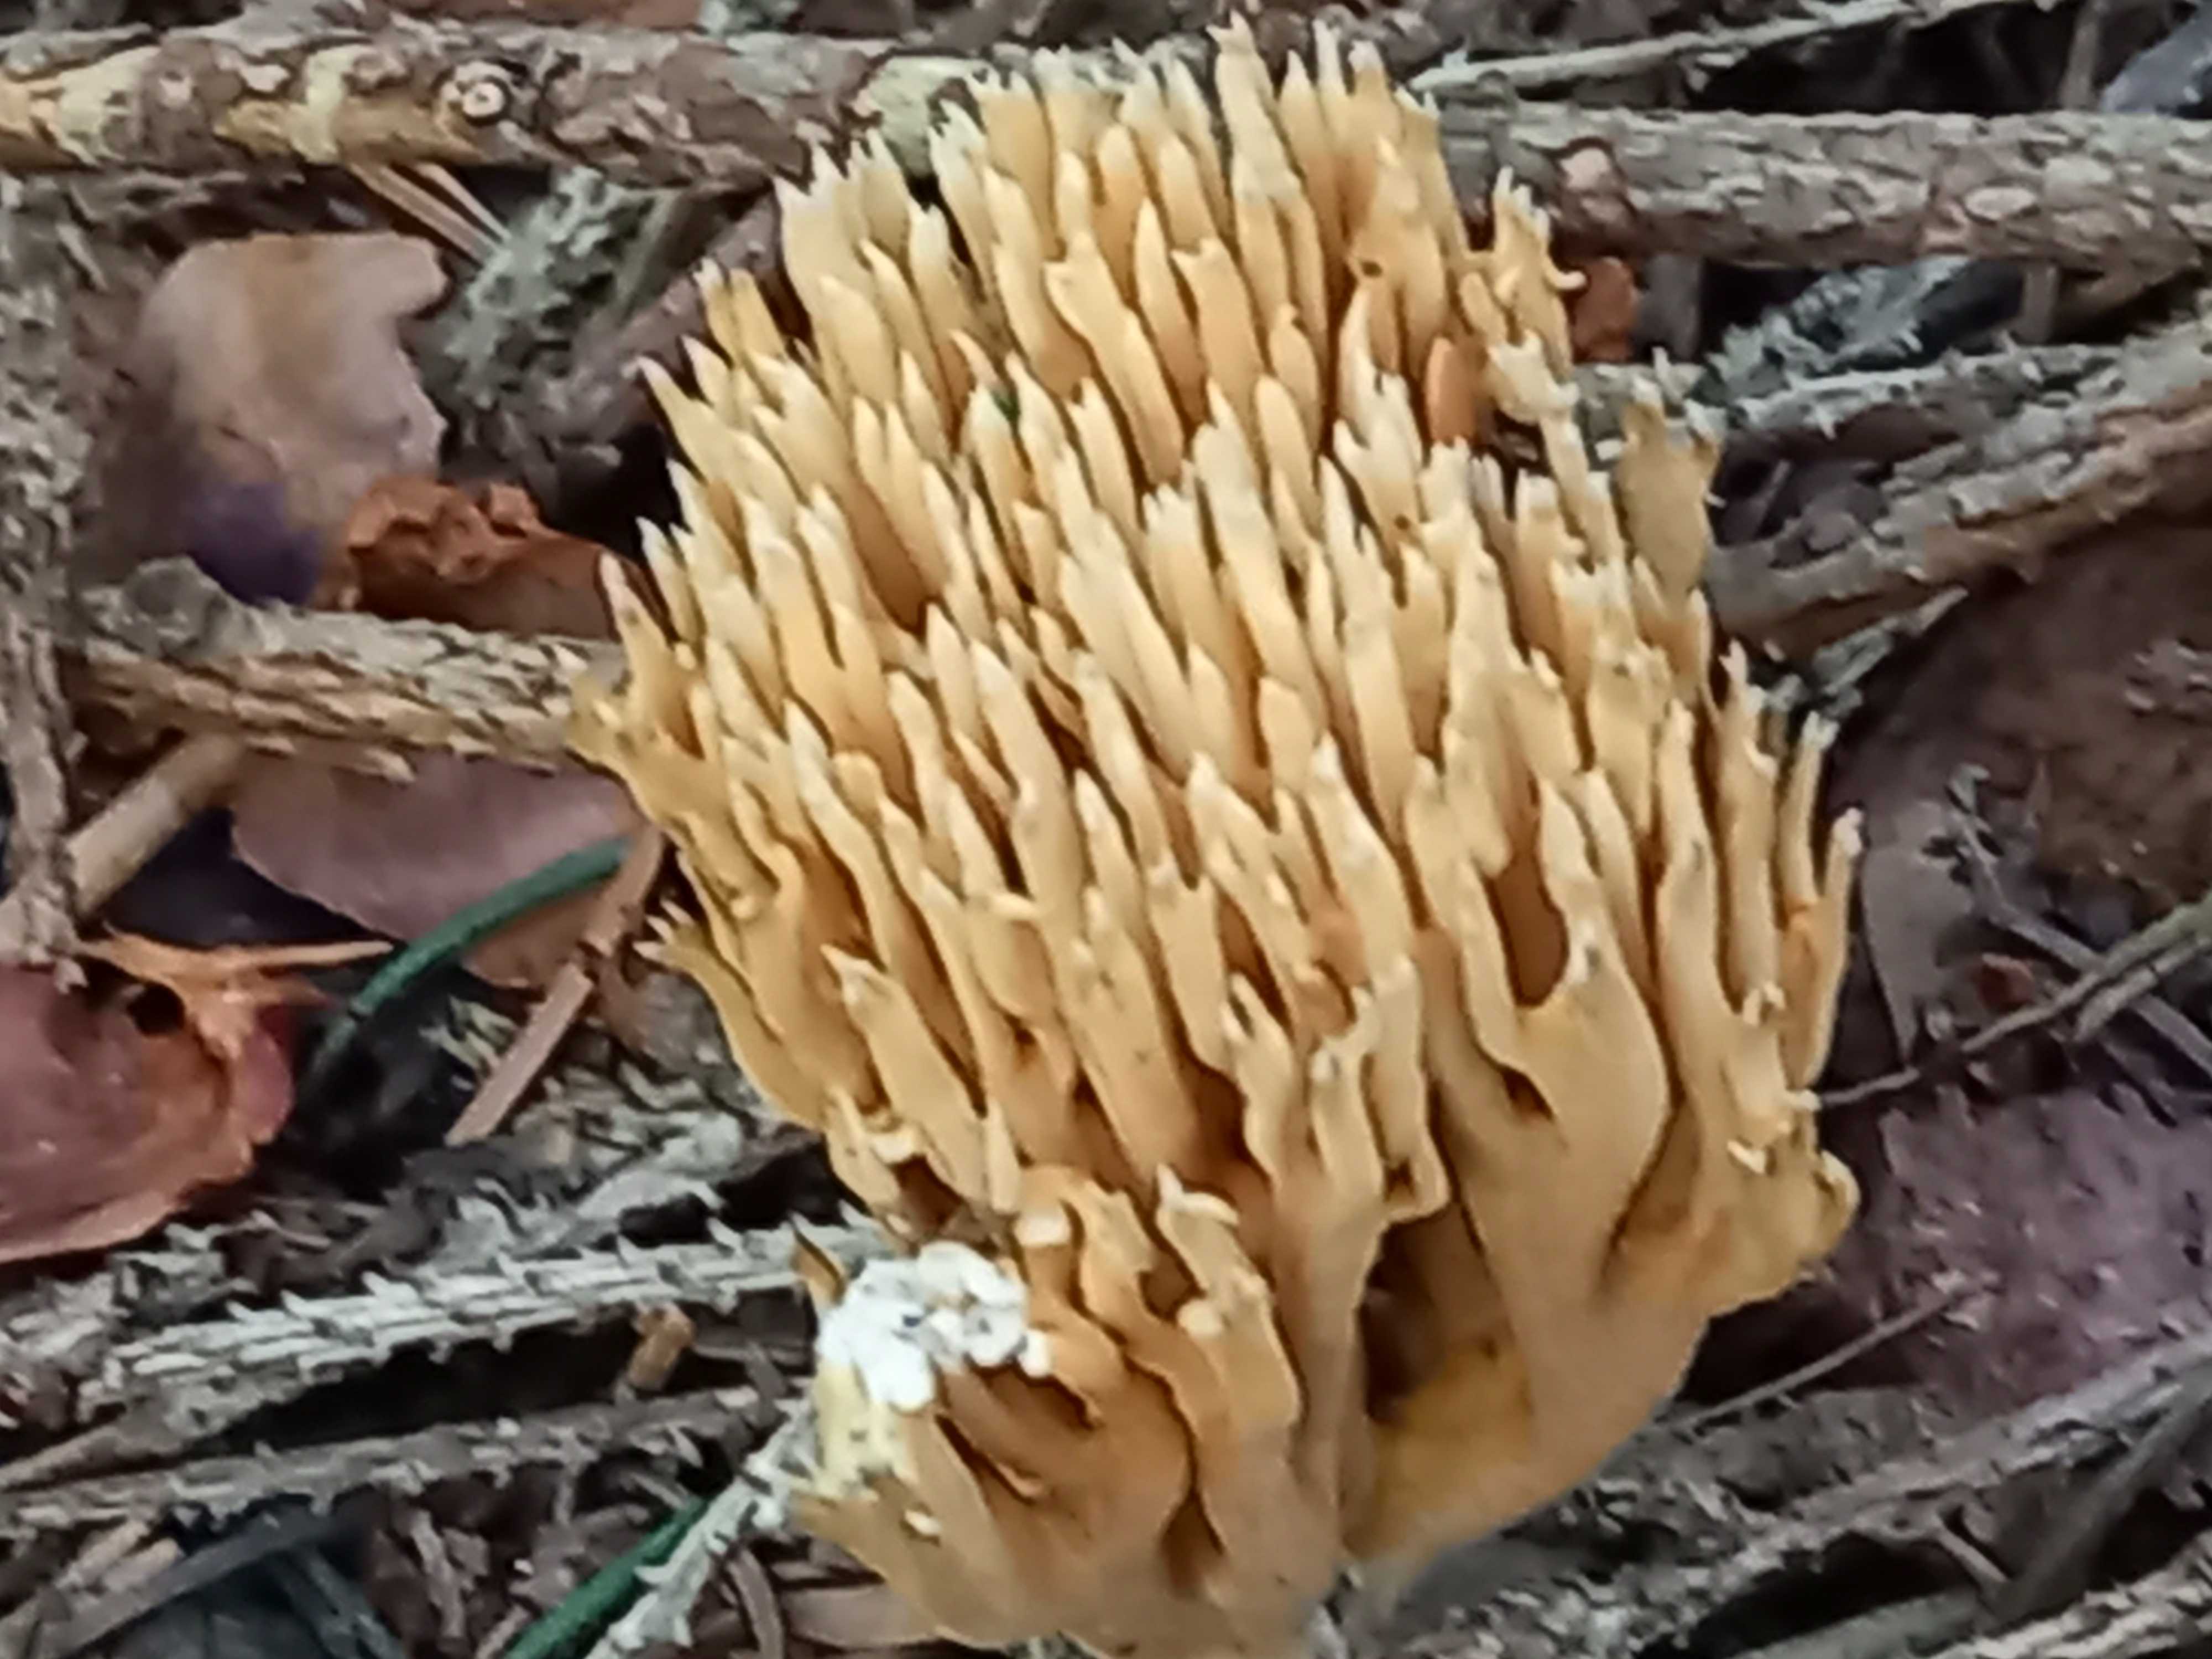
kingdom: Fungi
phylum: Basidiomycota
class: Agaricomycetes
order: Gomphales
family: Gomphaceae
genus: Phaeoclavulina
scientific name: Phaeoclavulina eumorpha
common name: gran-koralsvamp
